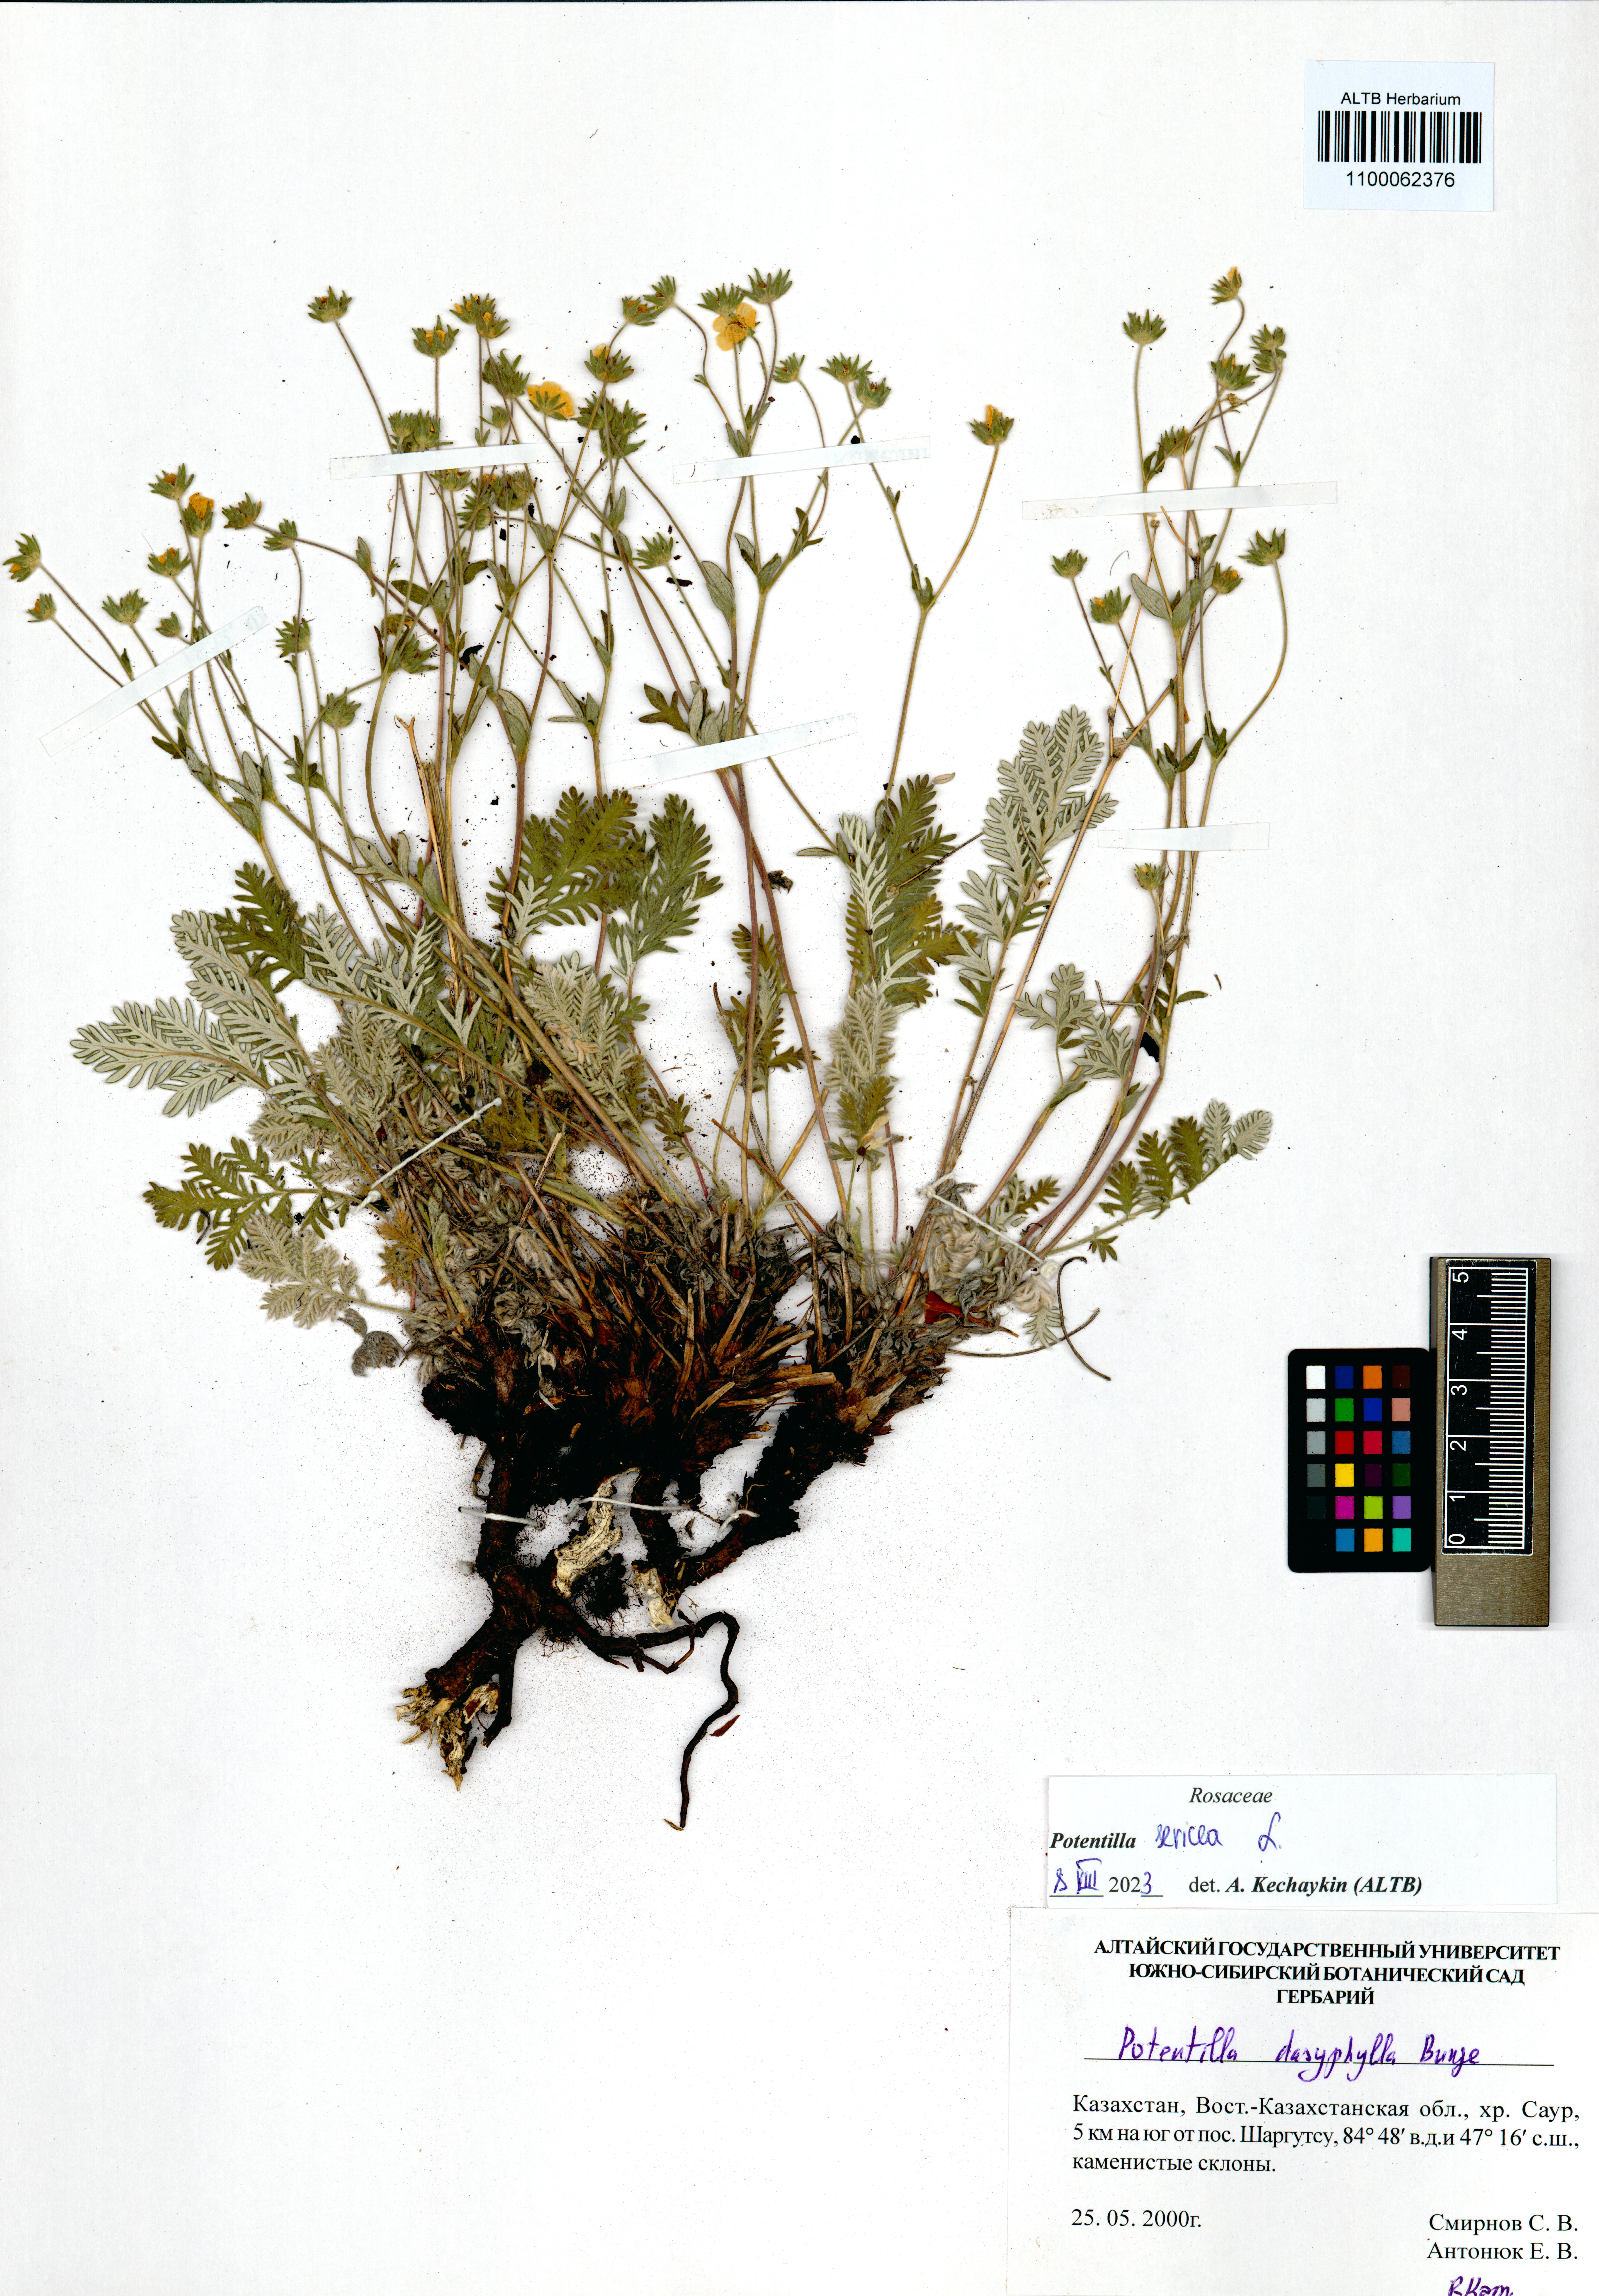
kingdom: Plantae
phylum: Tracheophyta
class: Magnoliopsida
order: Rosales
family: Rosaceae
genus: Potentilla
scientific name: Potentilla sericea
